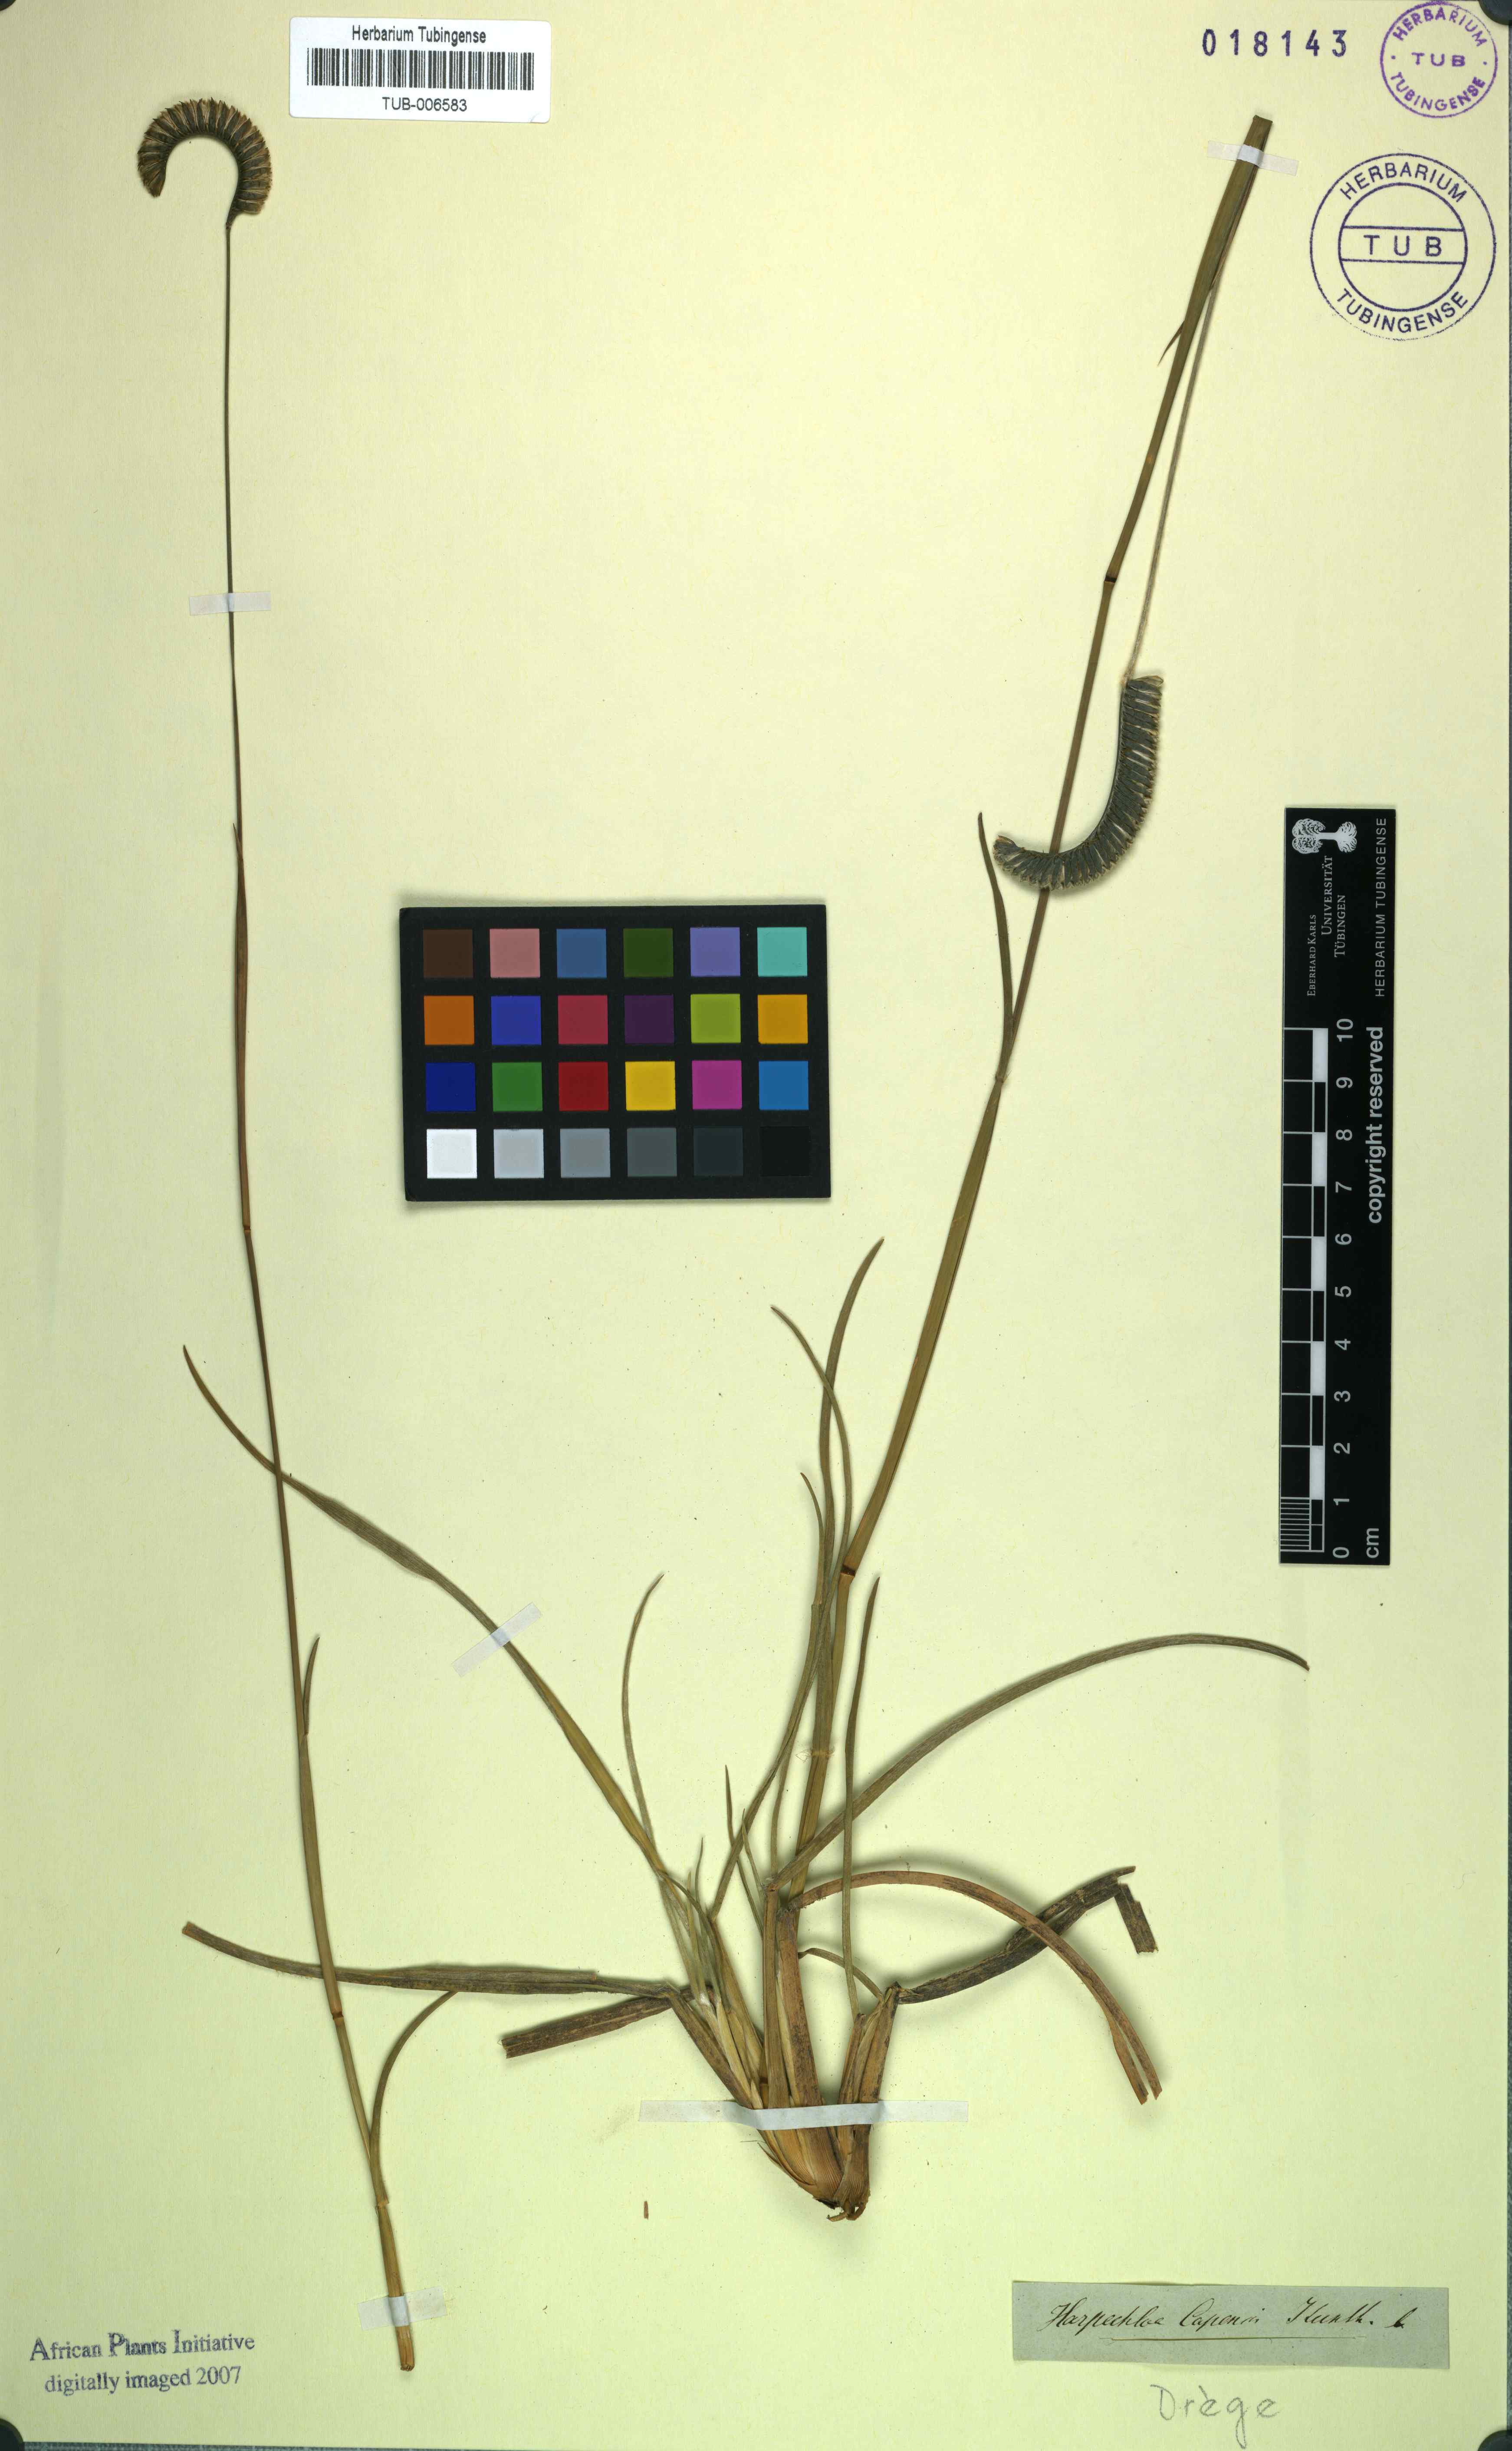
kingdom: Plantae
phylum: Tracheophyta
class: Liliopsida
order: Poales
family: Poaceae
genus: Harpochloa
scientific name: Harpochloa falx
